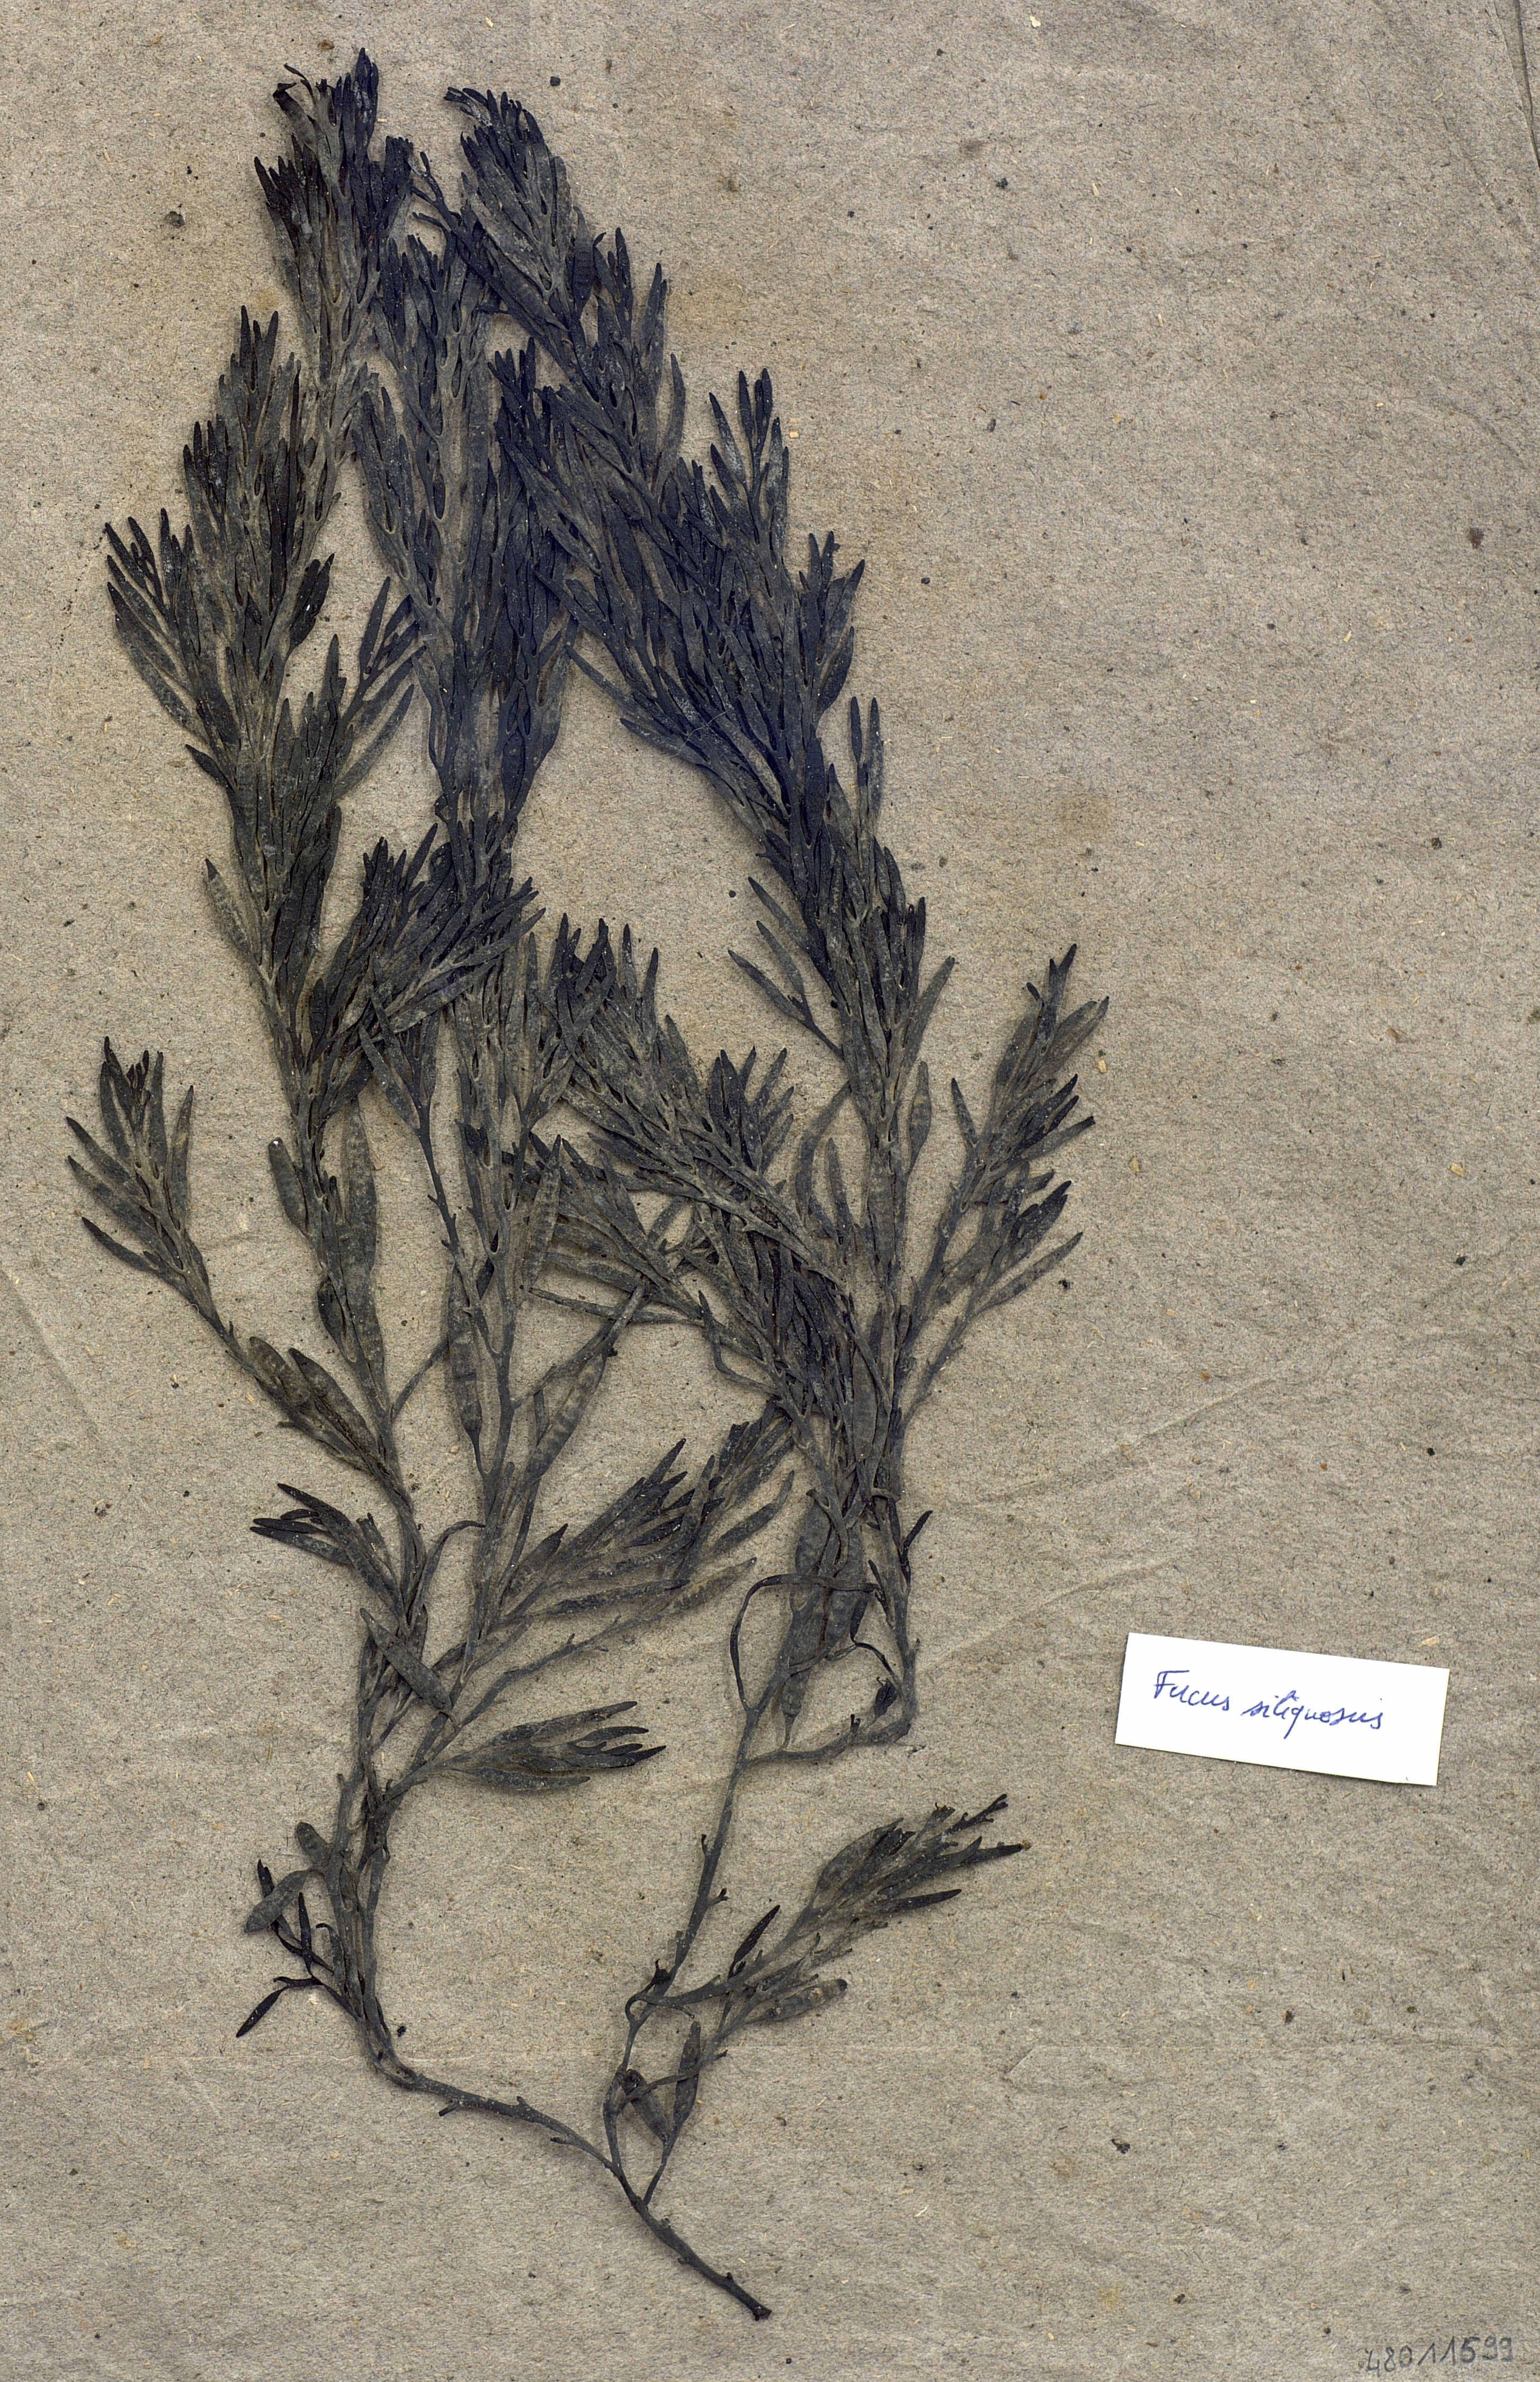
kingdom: Chromista
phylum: Ochrophyta
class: Phaeophyceae
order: Fucales
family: Sargassaceae
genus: Halidrys
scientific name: Halidrys siliquosa
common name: Sea oak
